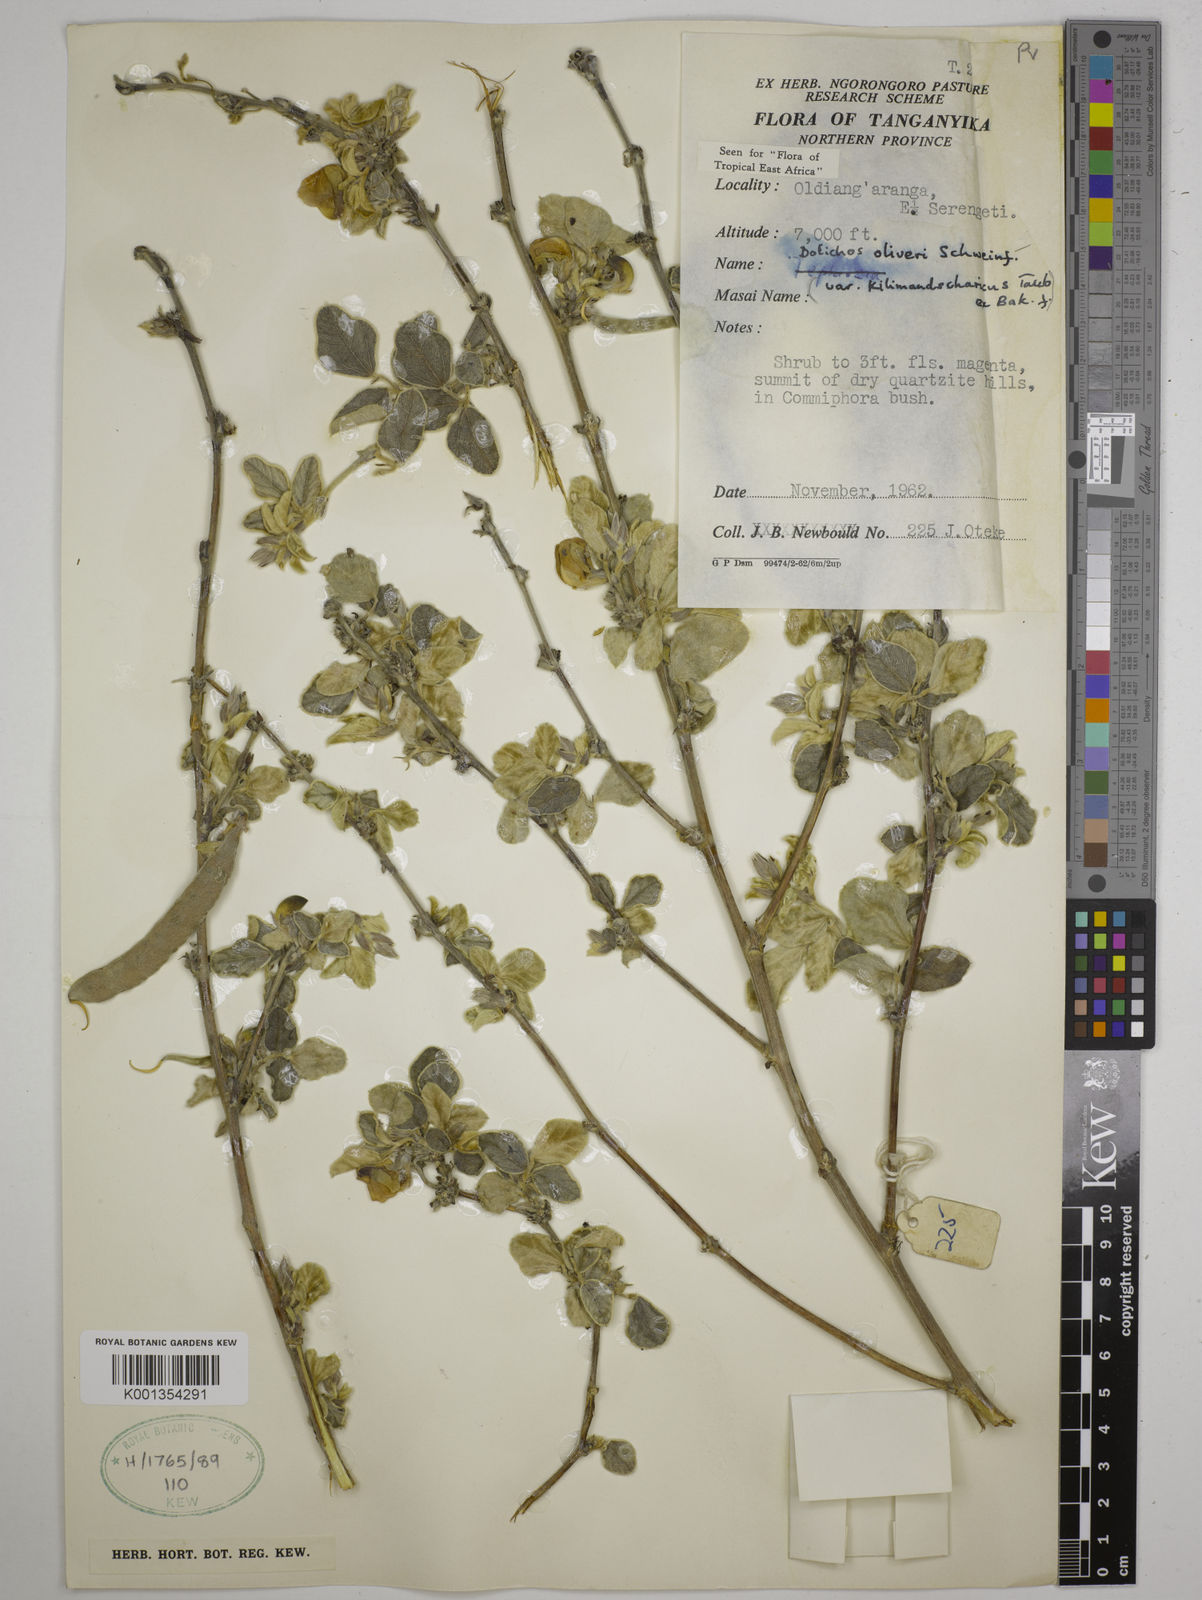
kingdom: Plantae
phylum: Tracheophyta
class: Magnoliopsida
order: Fabales
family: Fabaceae
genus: Dolichos
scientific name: Dolichos oliveri
